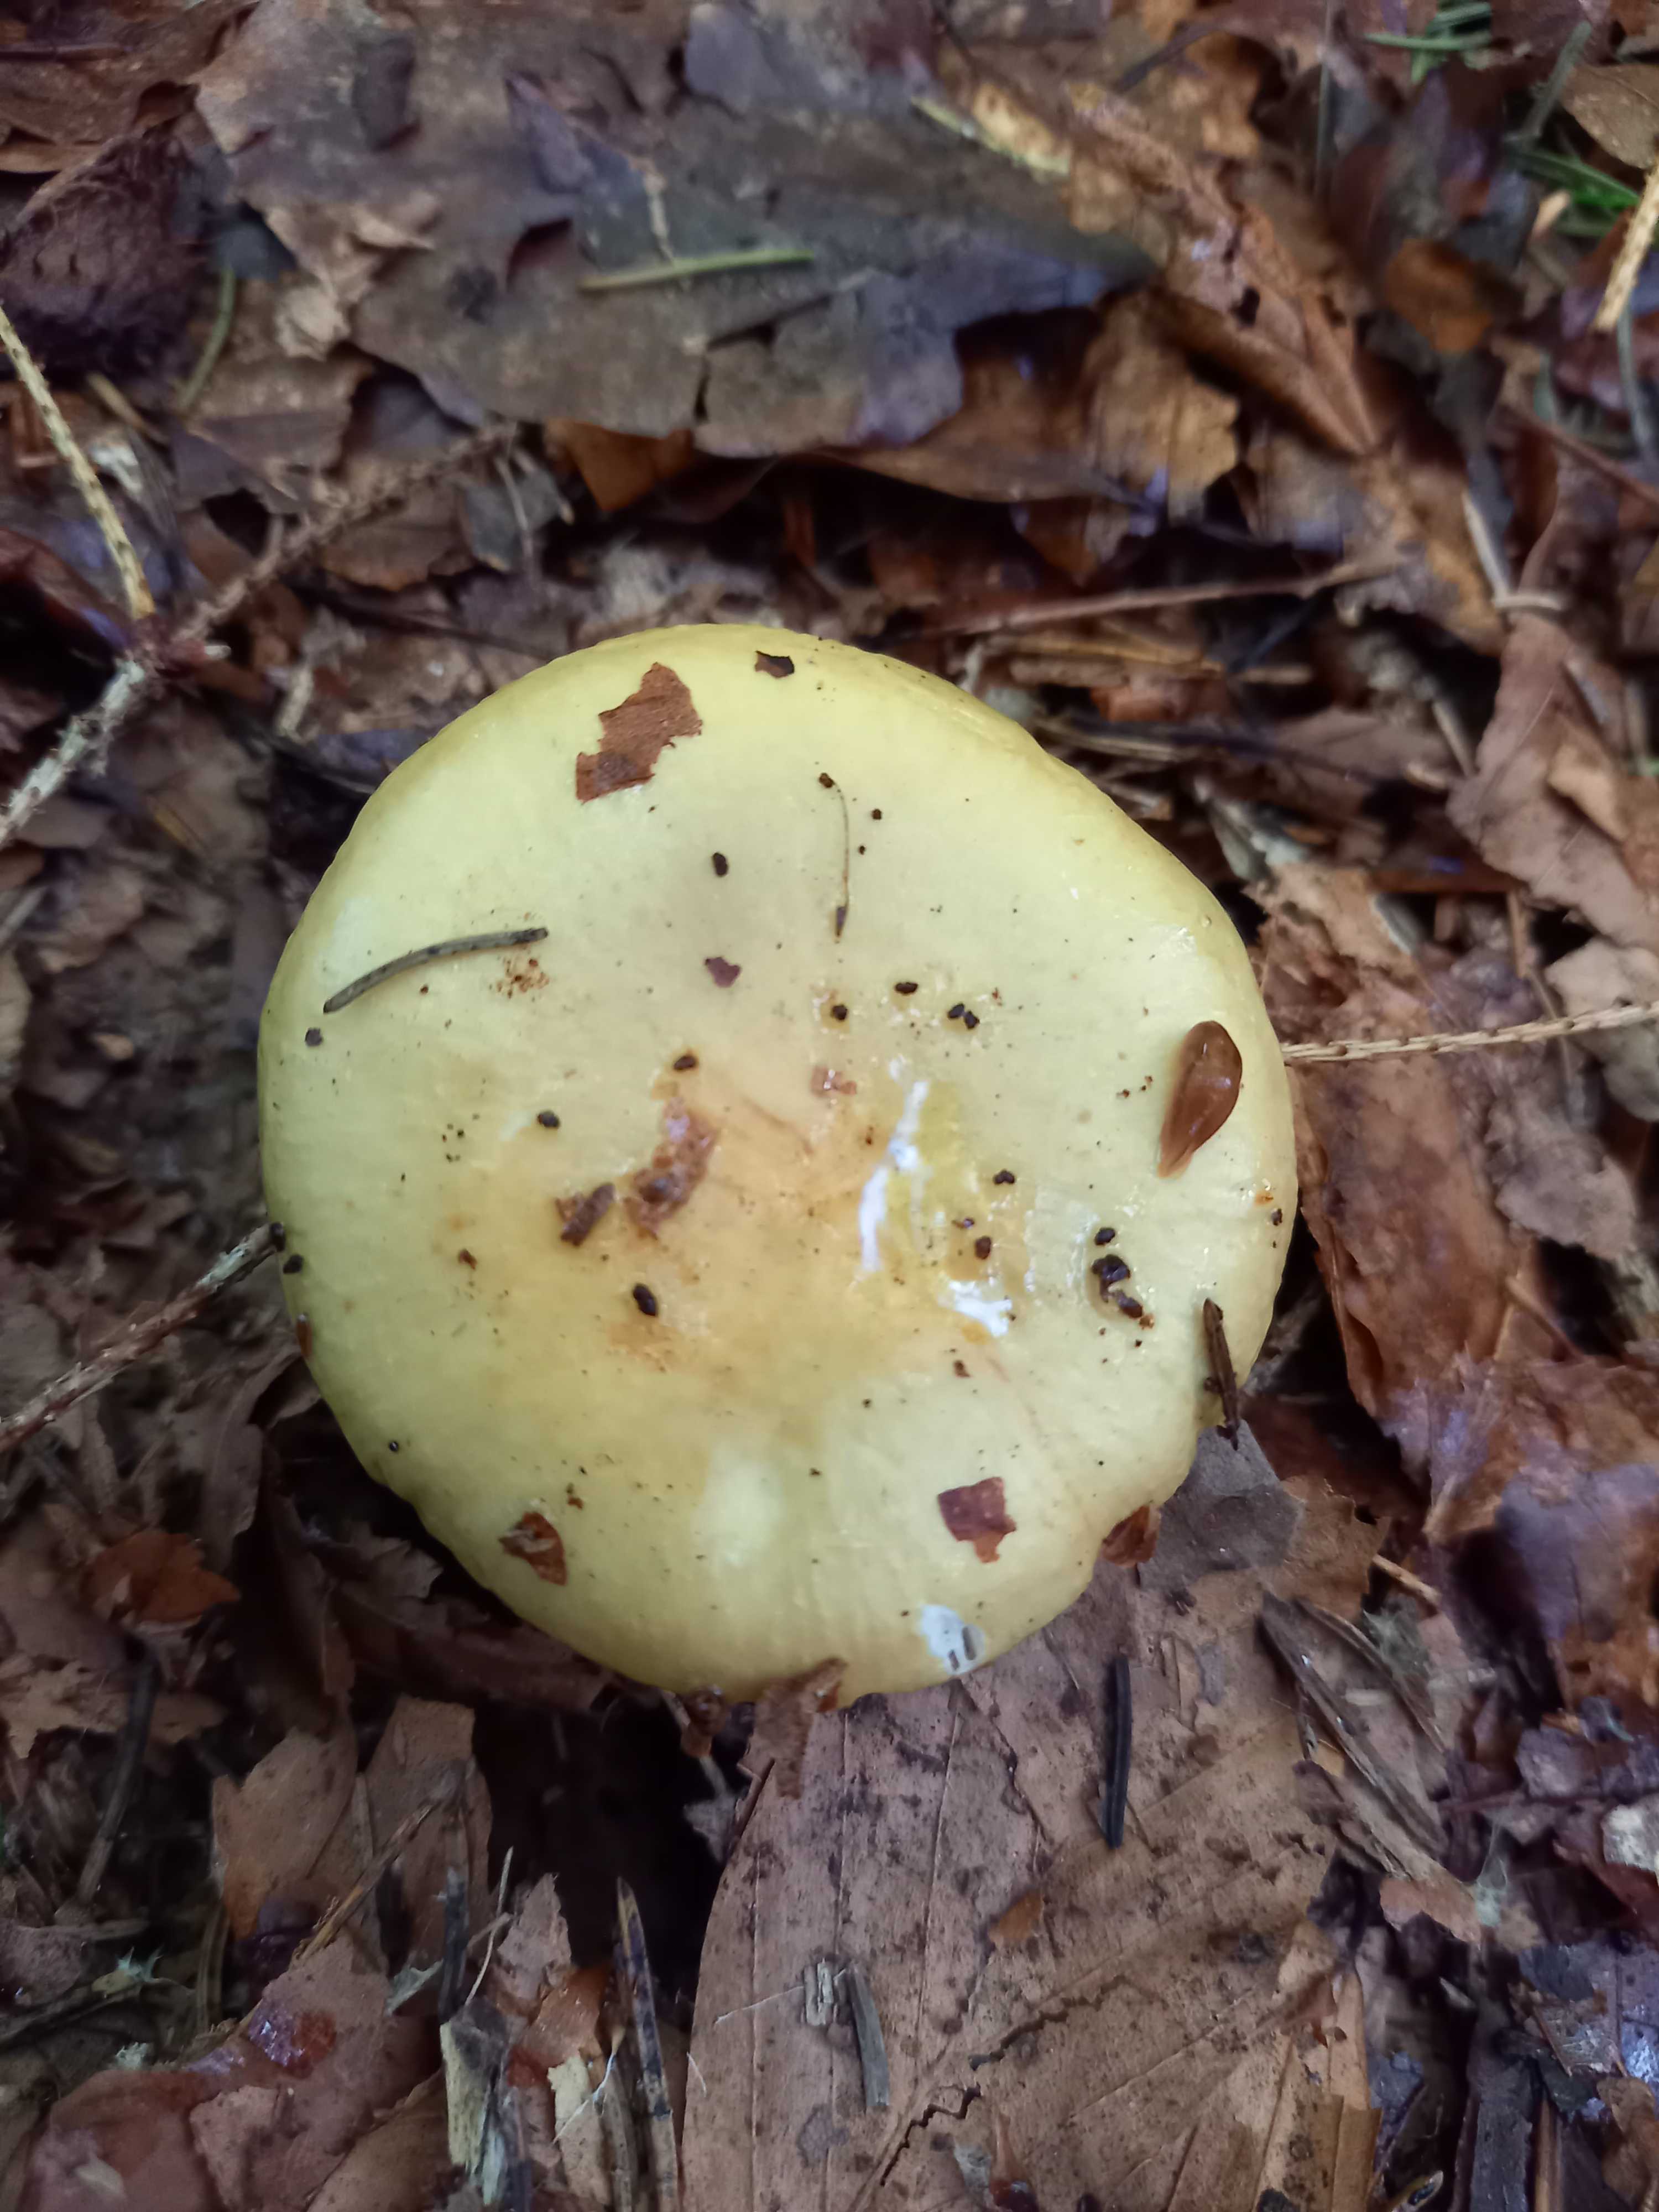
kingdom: Fungi
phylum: Basidiomycota
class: Agaricomycetes
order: Russulales
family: Russulaceae
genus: Russula
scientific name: Russula ochroleuca
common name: okkergul skørhat
